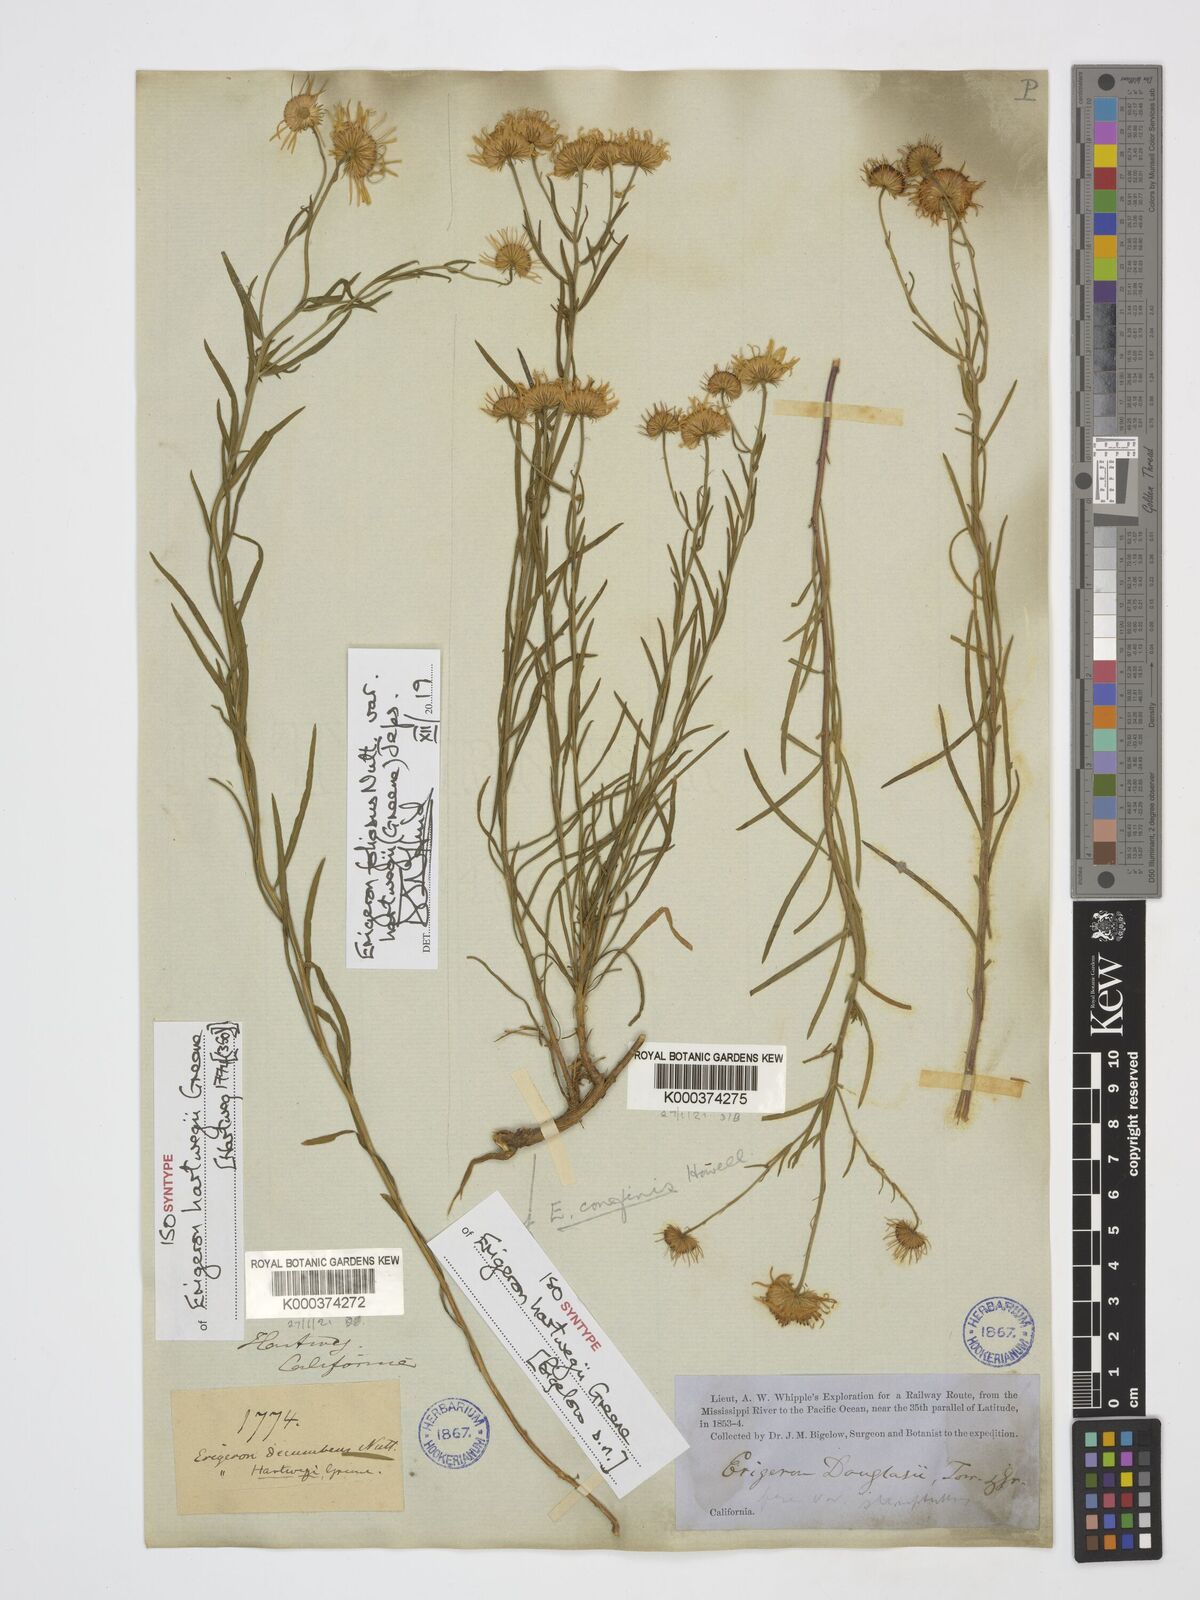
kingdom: Plantae
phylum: Tracheophyta
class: Magnoliopsida
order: Asterales
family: Asteraceae
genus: Erigeron
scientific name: Erigeron foliosus
